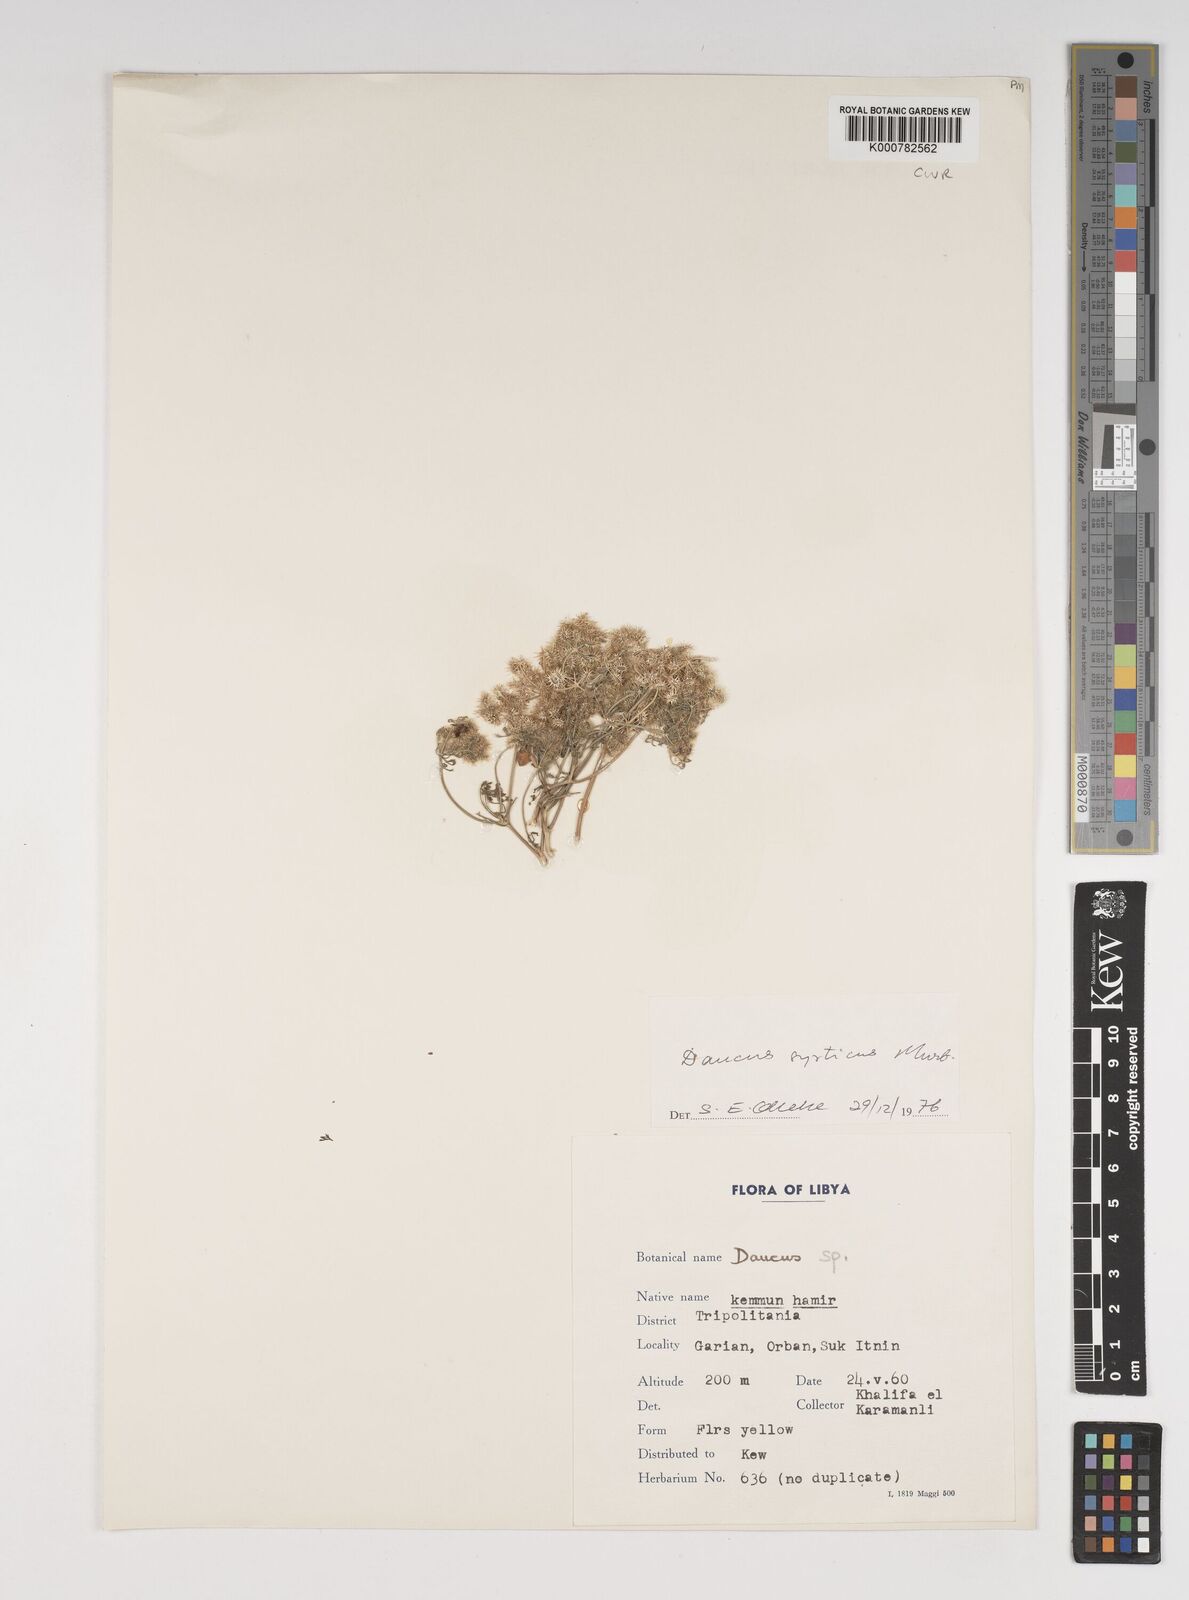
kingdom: Plantae
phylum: Tracheophyta
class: Magnoliopsida
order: Apiales
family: Apiaceae
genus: Daucus
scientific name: Daucus syrticus
